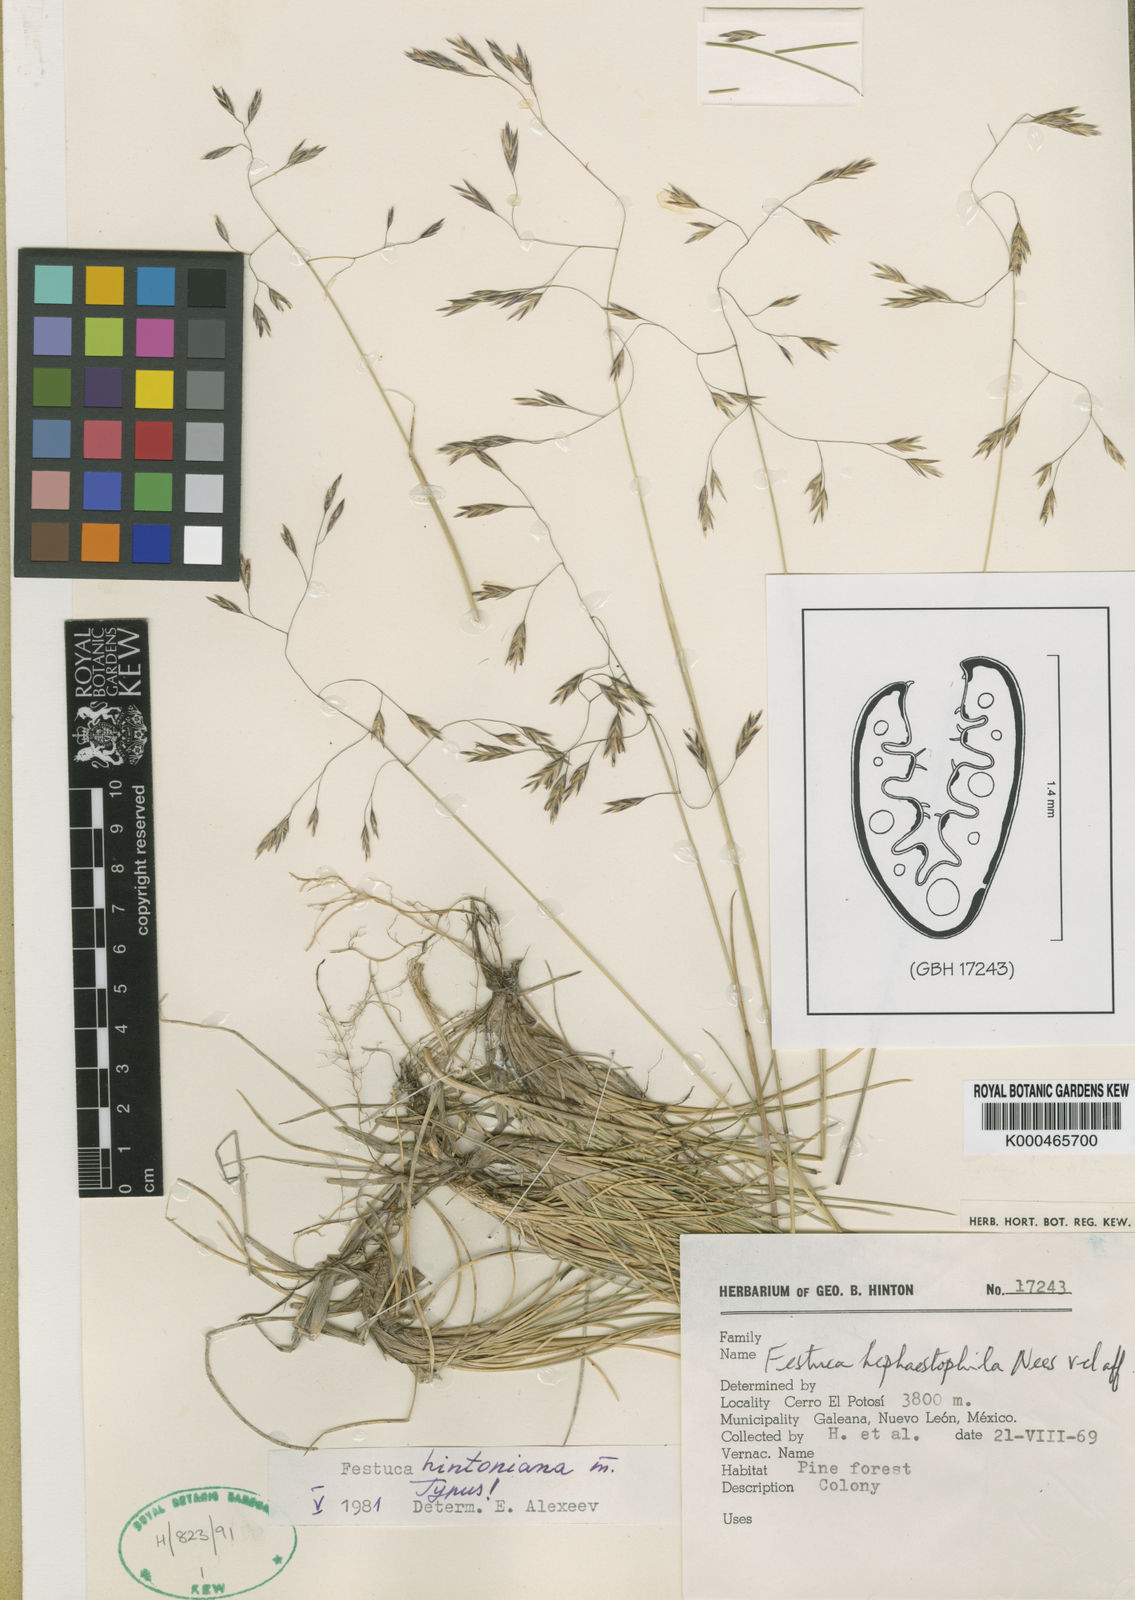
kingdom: Plantae
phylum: Tracheophyta
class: Liliopsida
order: Poales
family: Poaceae
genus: Festuca
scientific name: Festuca hintoniana
